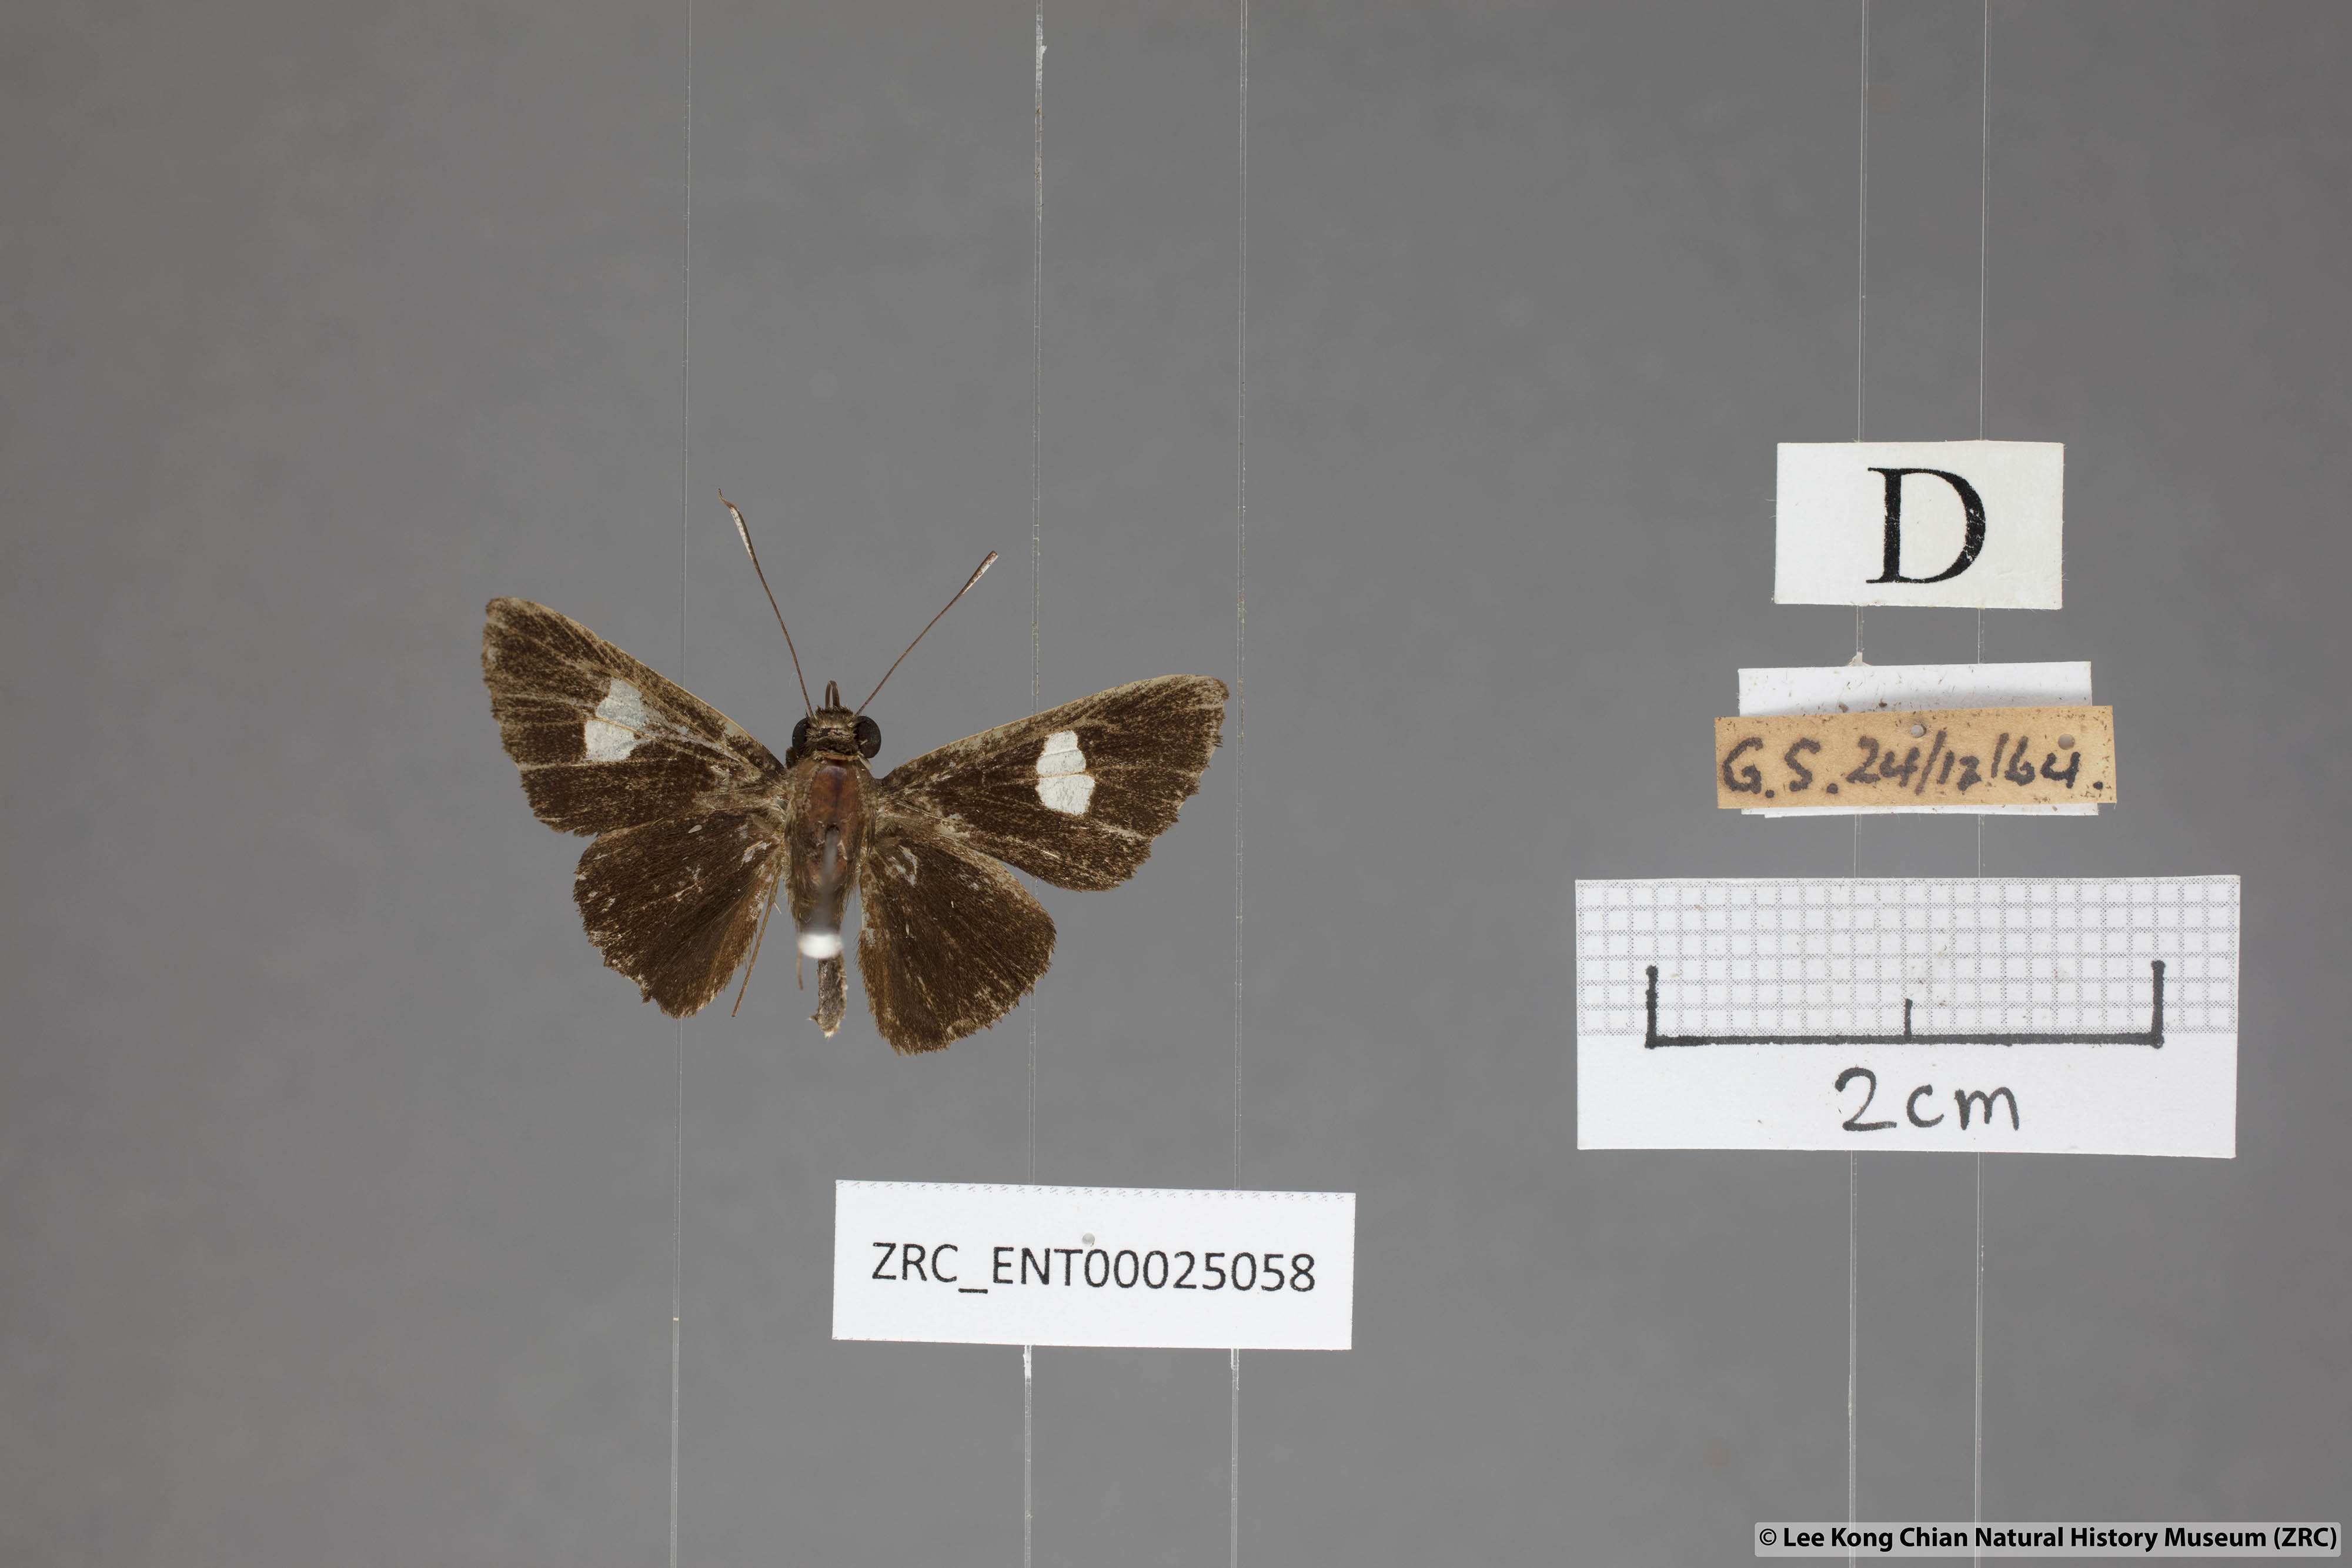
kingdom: Animalia
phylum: Arthropoda
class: Insecta
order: Lepidoptera
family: Hesperiidae
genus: Oerane
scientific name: Oerane microthyrus
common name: White club flitter
